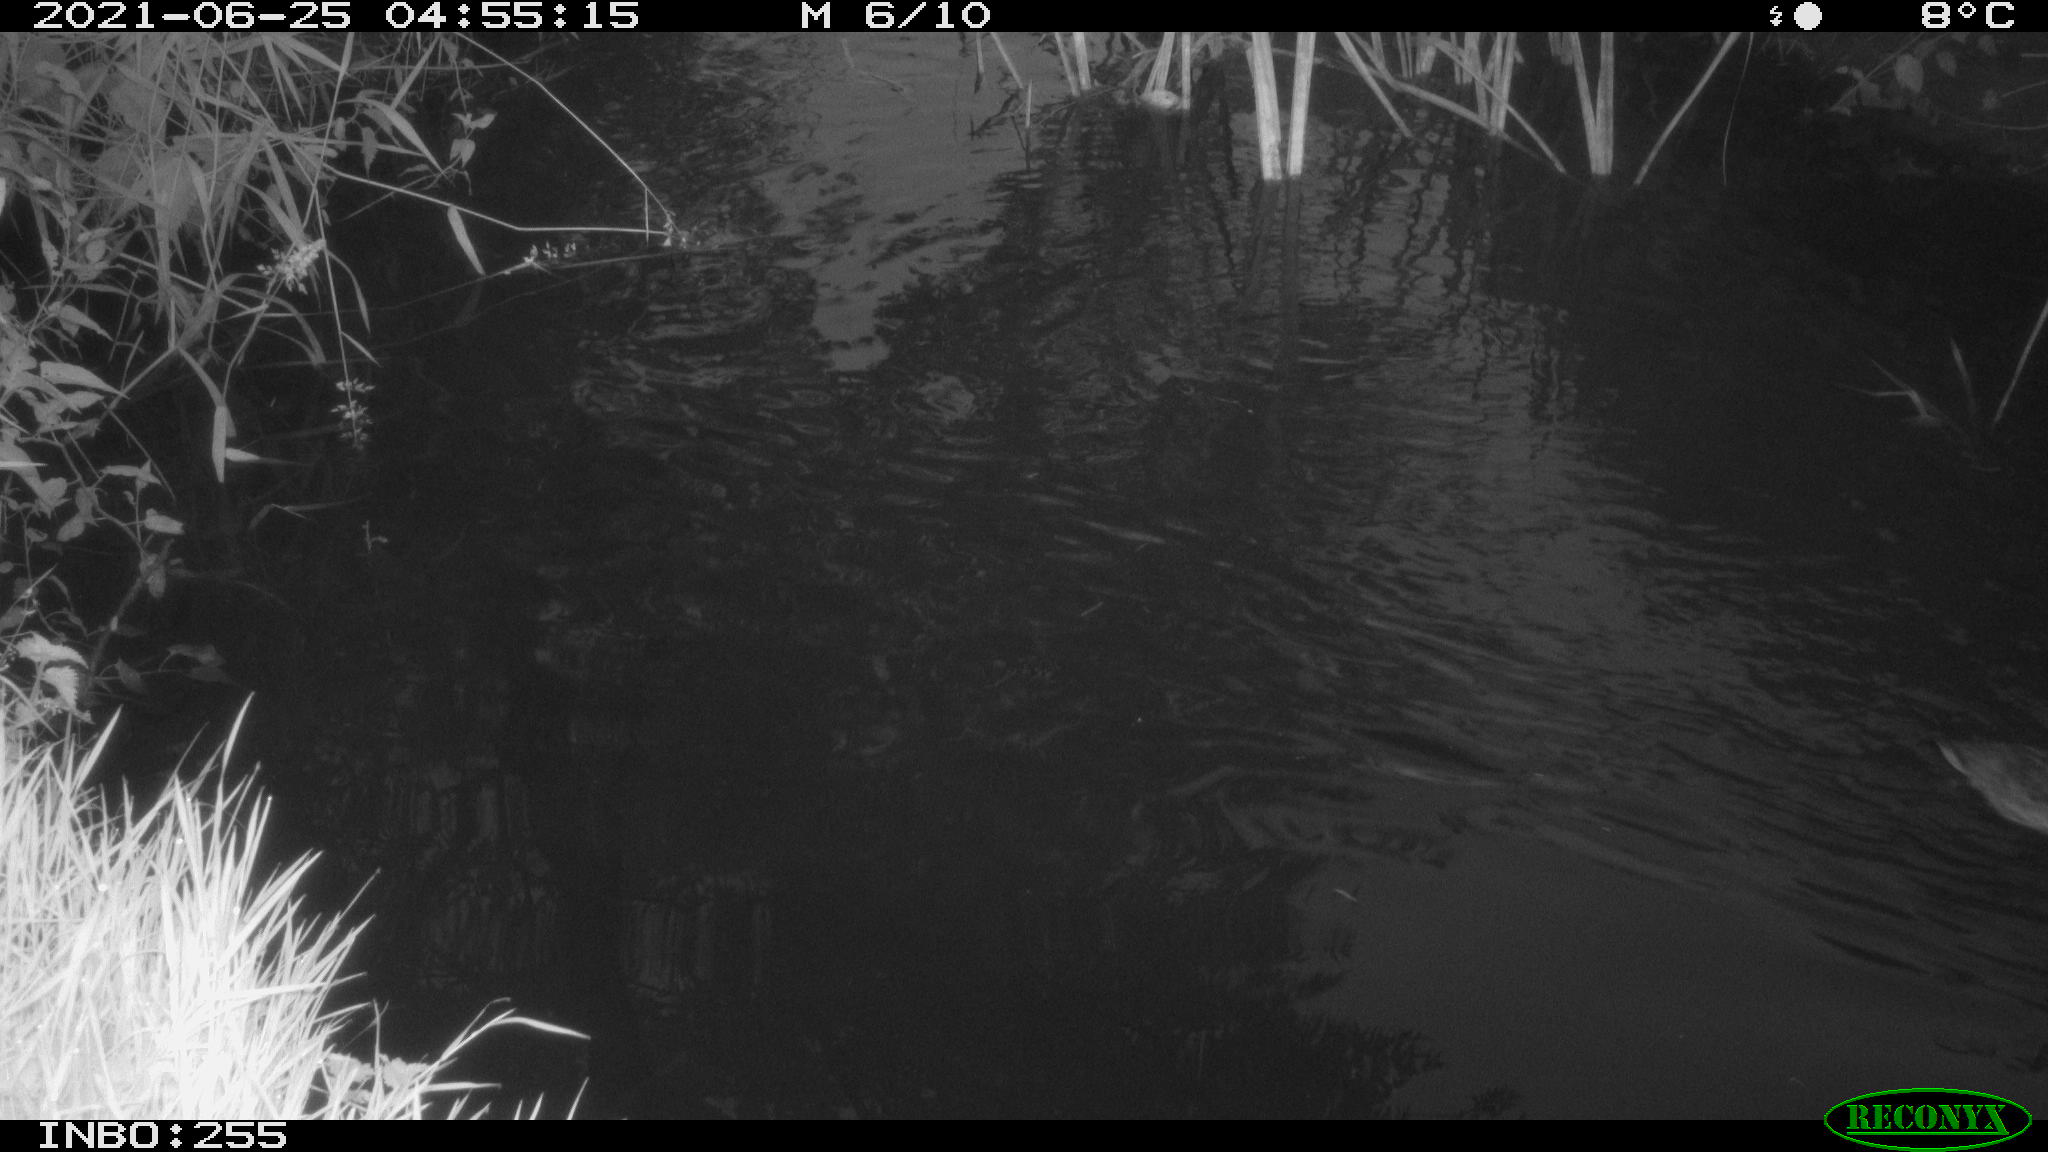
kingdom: Animalia
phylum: Chordata
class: Aves
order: Anseriformes
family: Anatidae
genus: Anas
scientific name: Anas platyrhynchos
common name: Mallard
